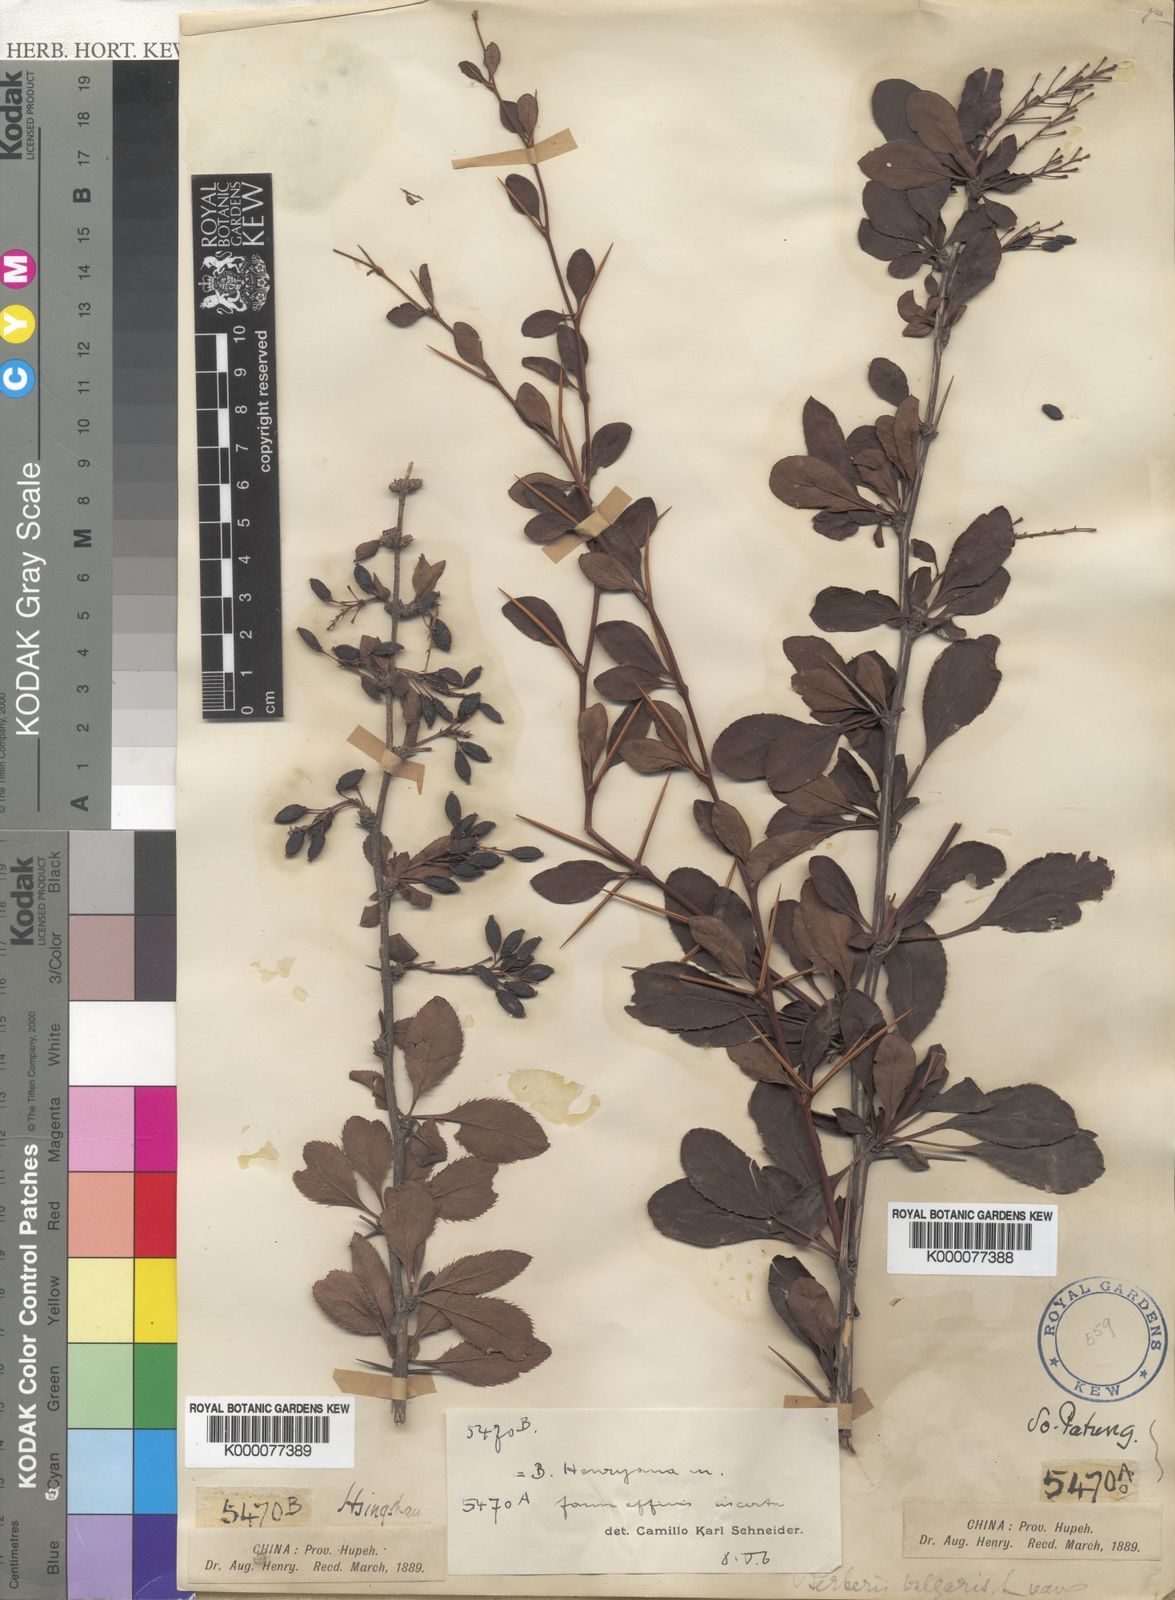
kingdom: Plantae
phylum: Tracheophyta
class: Magnoliopsida
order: Ranunculales
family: Berberidaceae
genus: Berberis
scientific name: Berberis henryana
